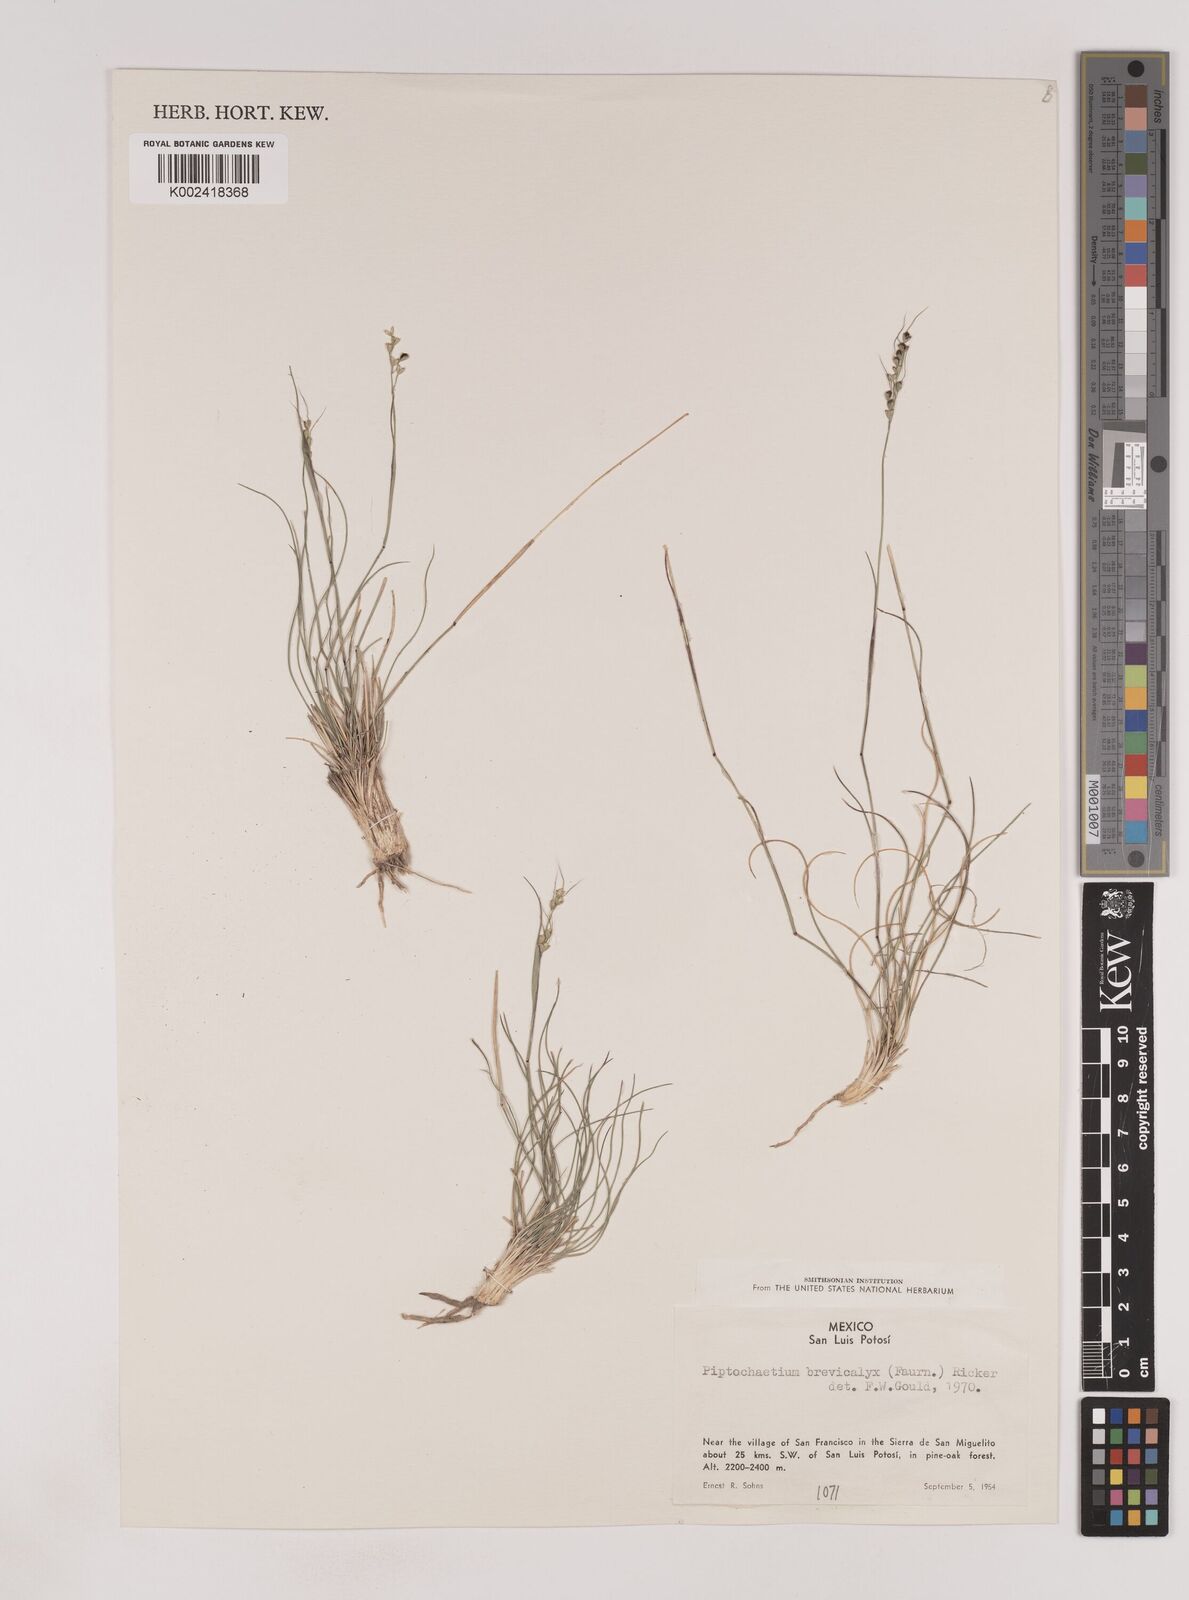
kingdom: Plantae
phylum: Tracheophyta
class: Liliopsida
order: Poales
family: Poaceae
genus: Piptochaetium
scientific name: Piptochaetium brevicalyx
